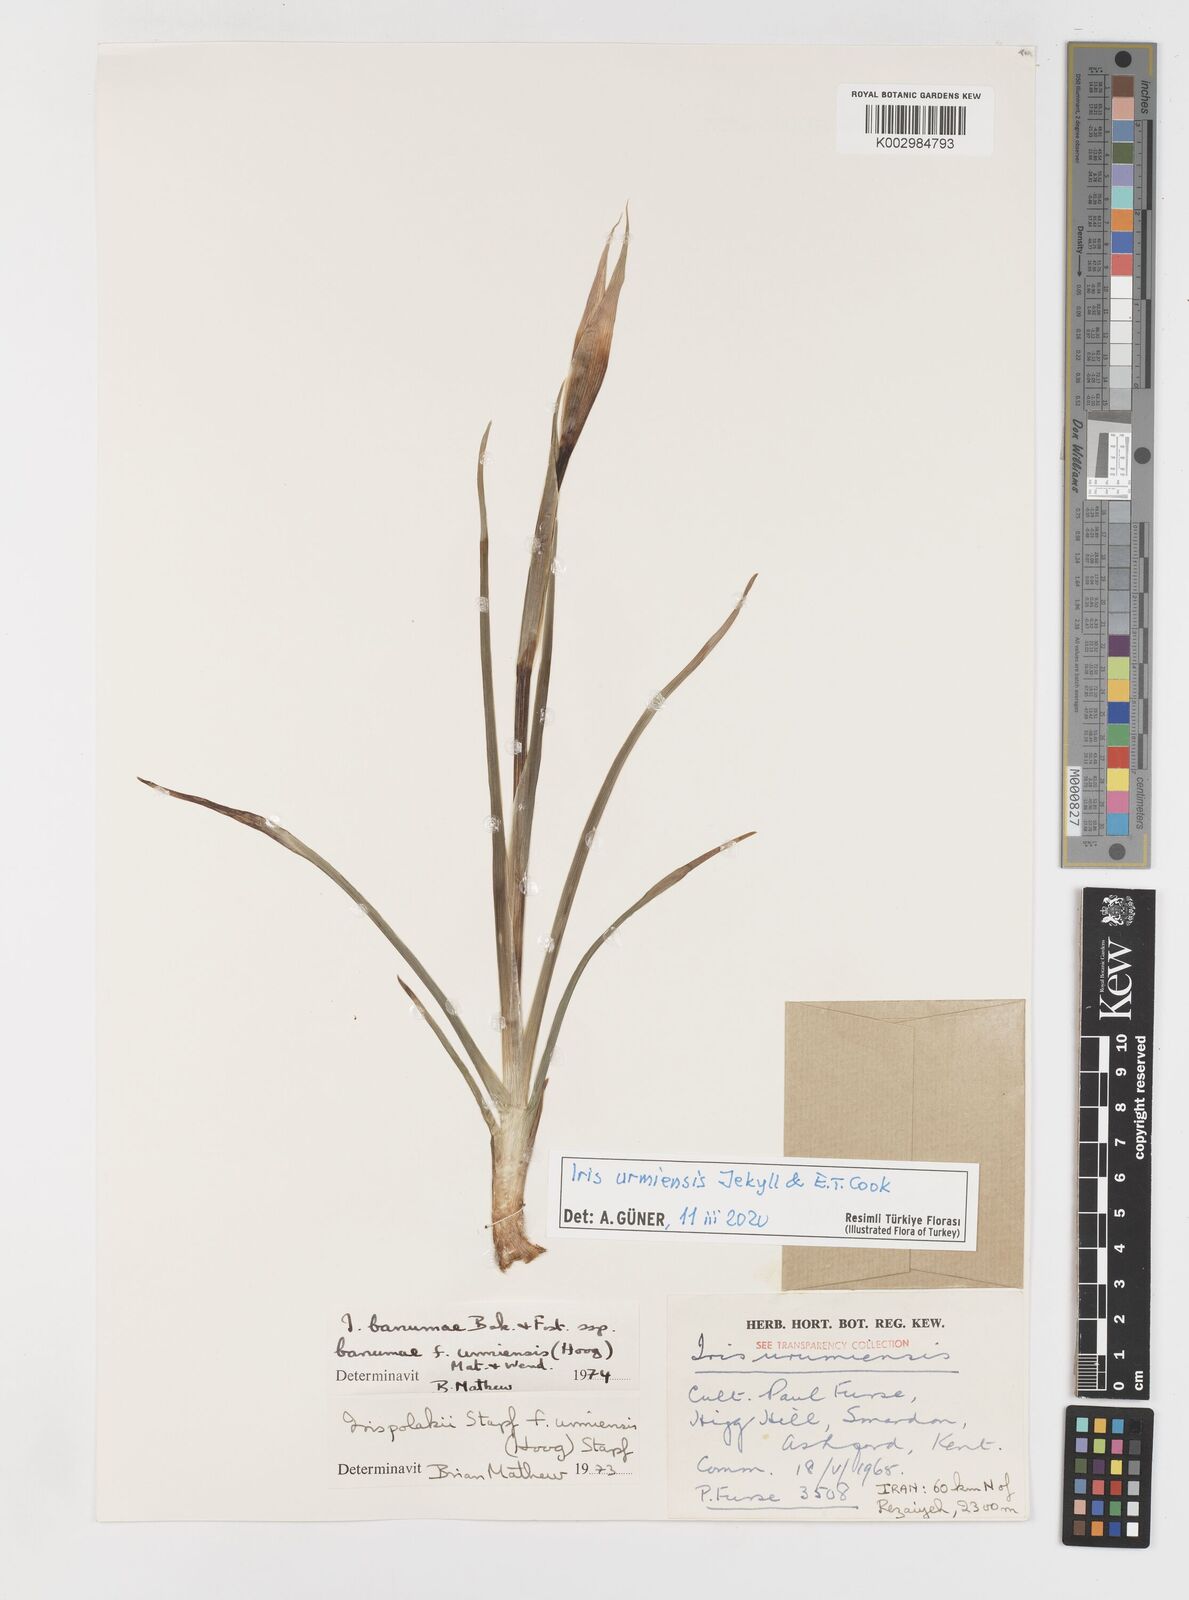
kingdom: Plantae
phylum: Tracheophyta
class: Liliopsida
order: Asparagales
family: Iridaceae
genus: Iris
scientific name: Iris polakii
